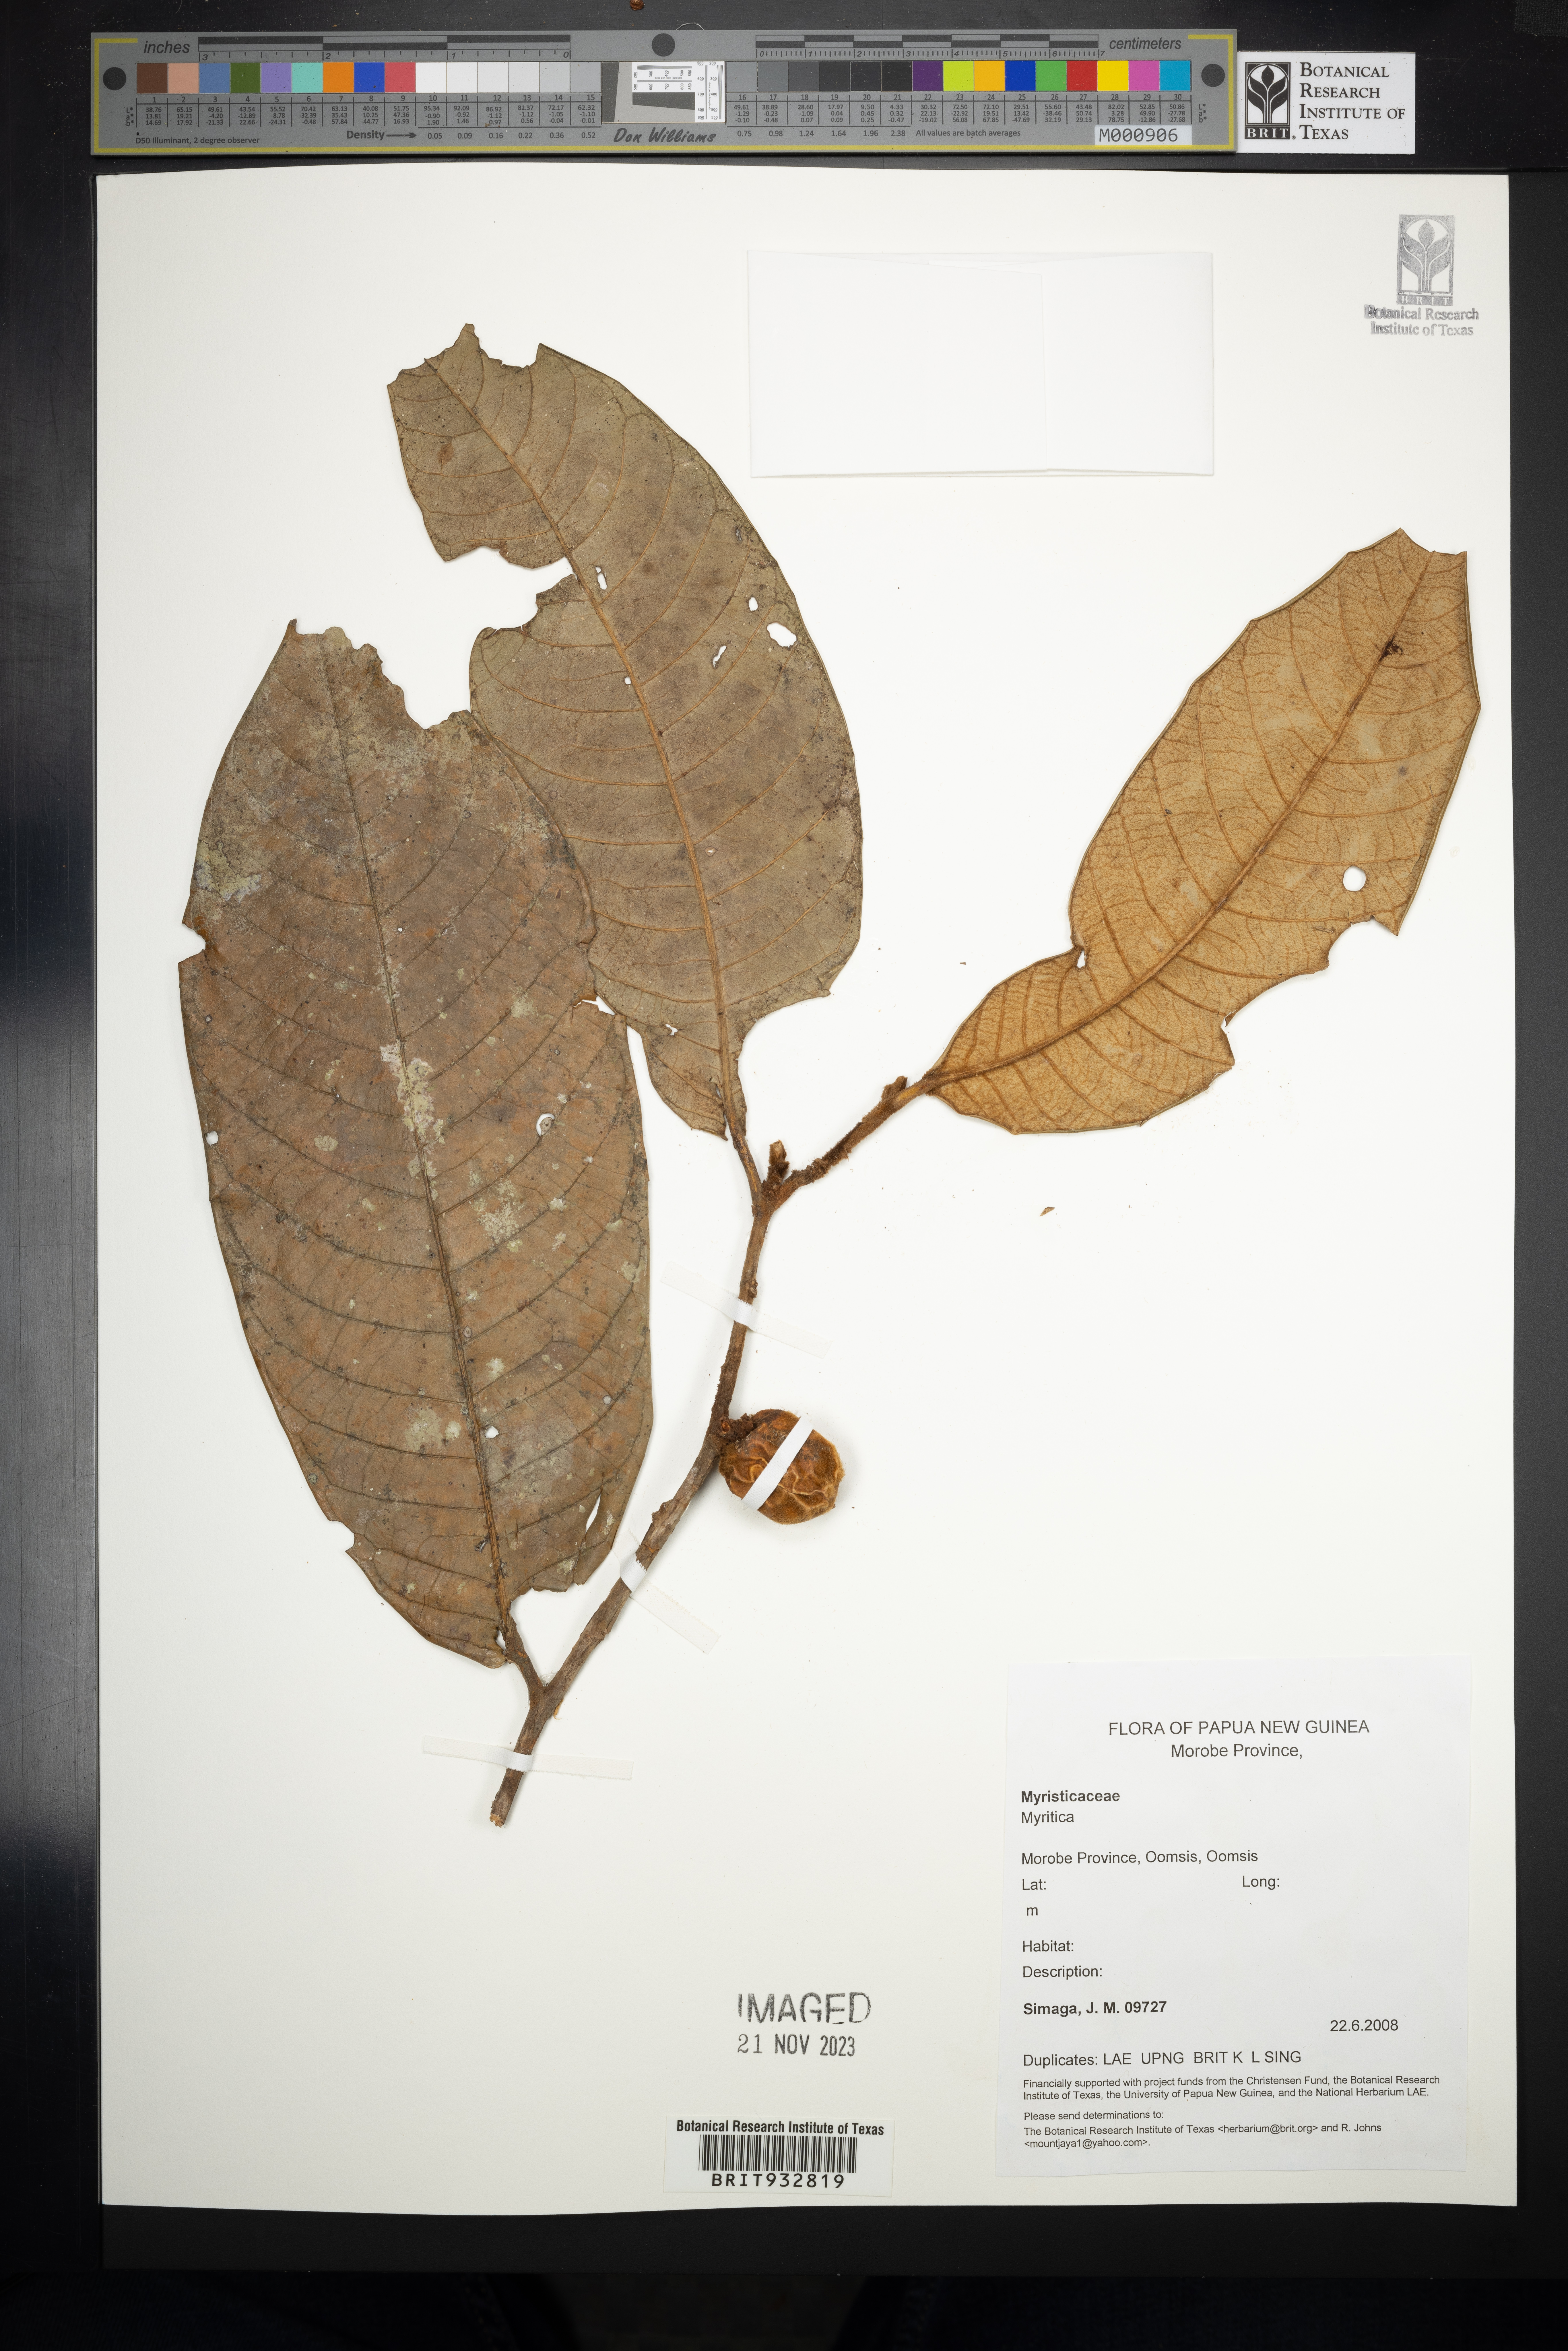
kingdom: Plantae
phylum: Tracheophyta
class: Magnoliopsida
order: Magnoliales
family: Myristicaceae
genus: Myristica
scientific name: Myristica
